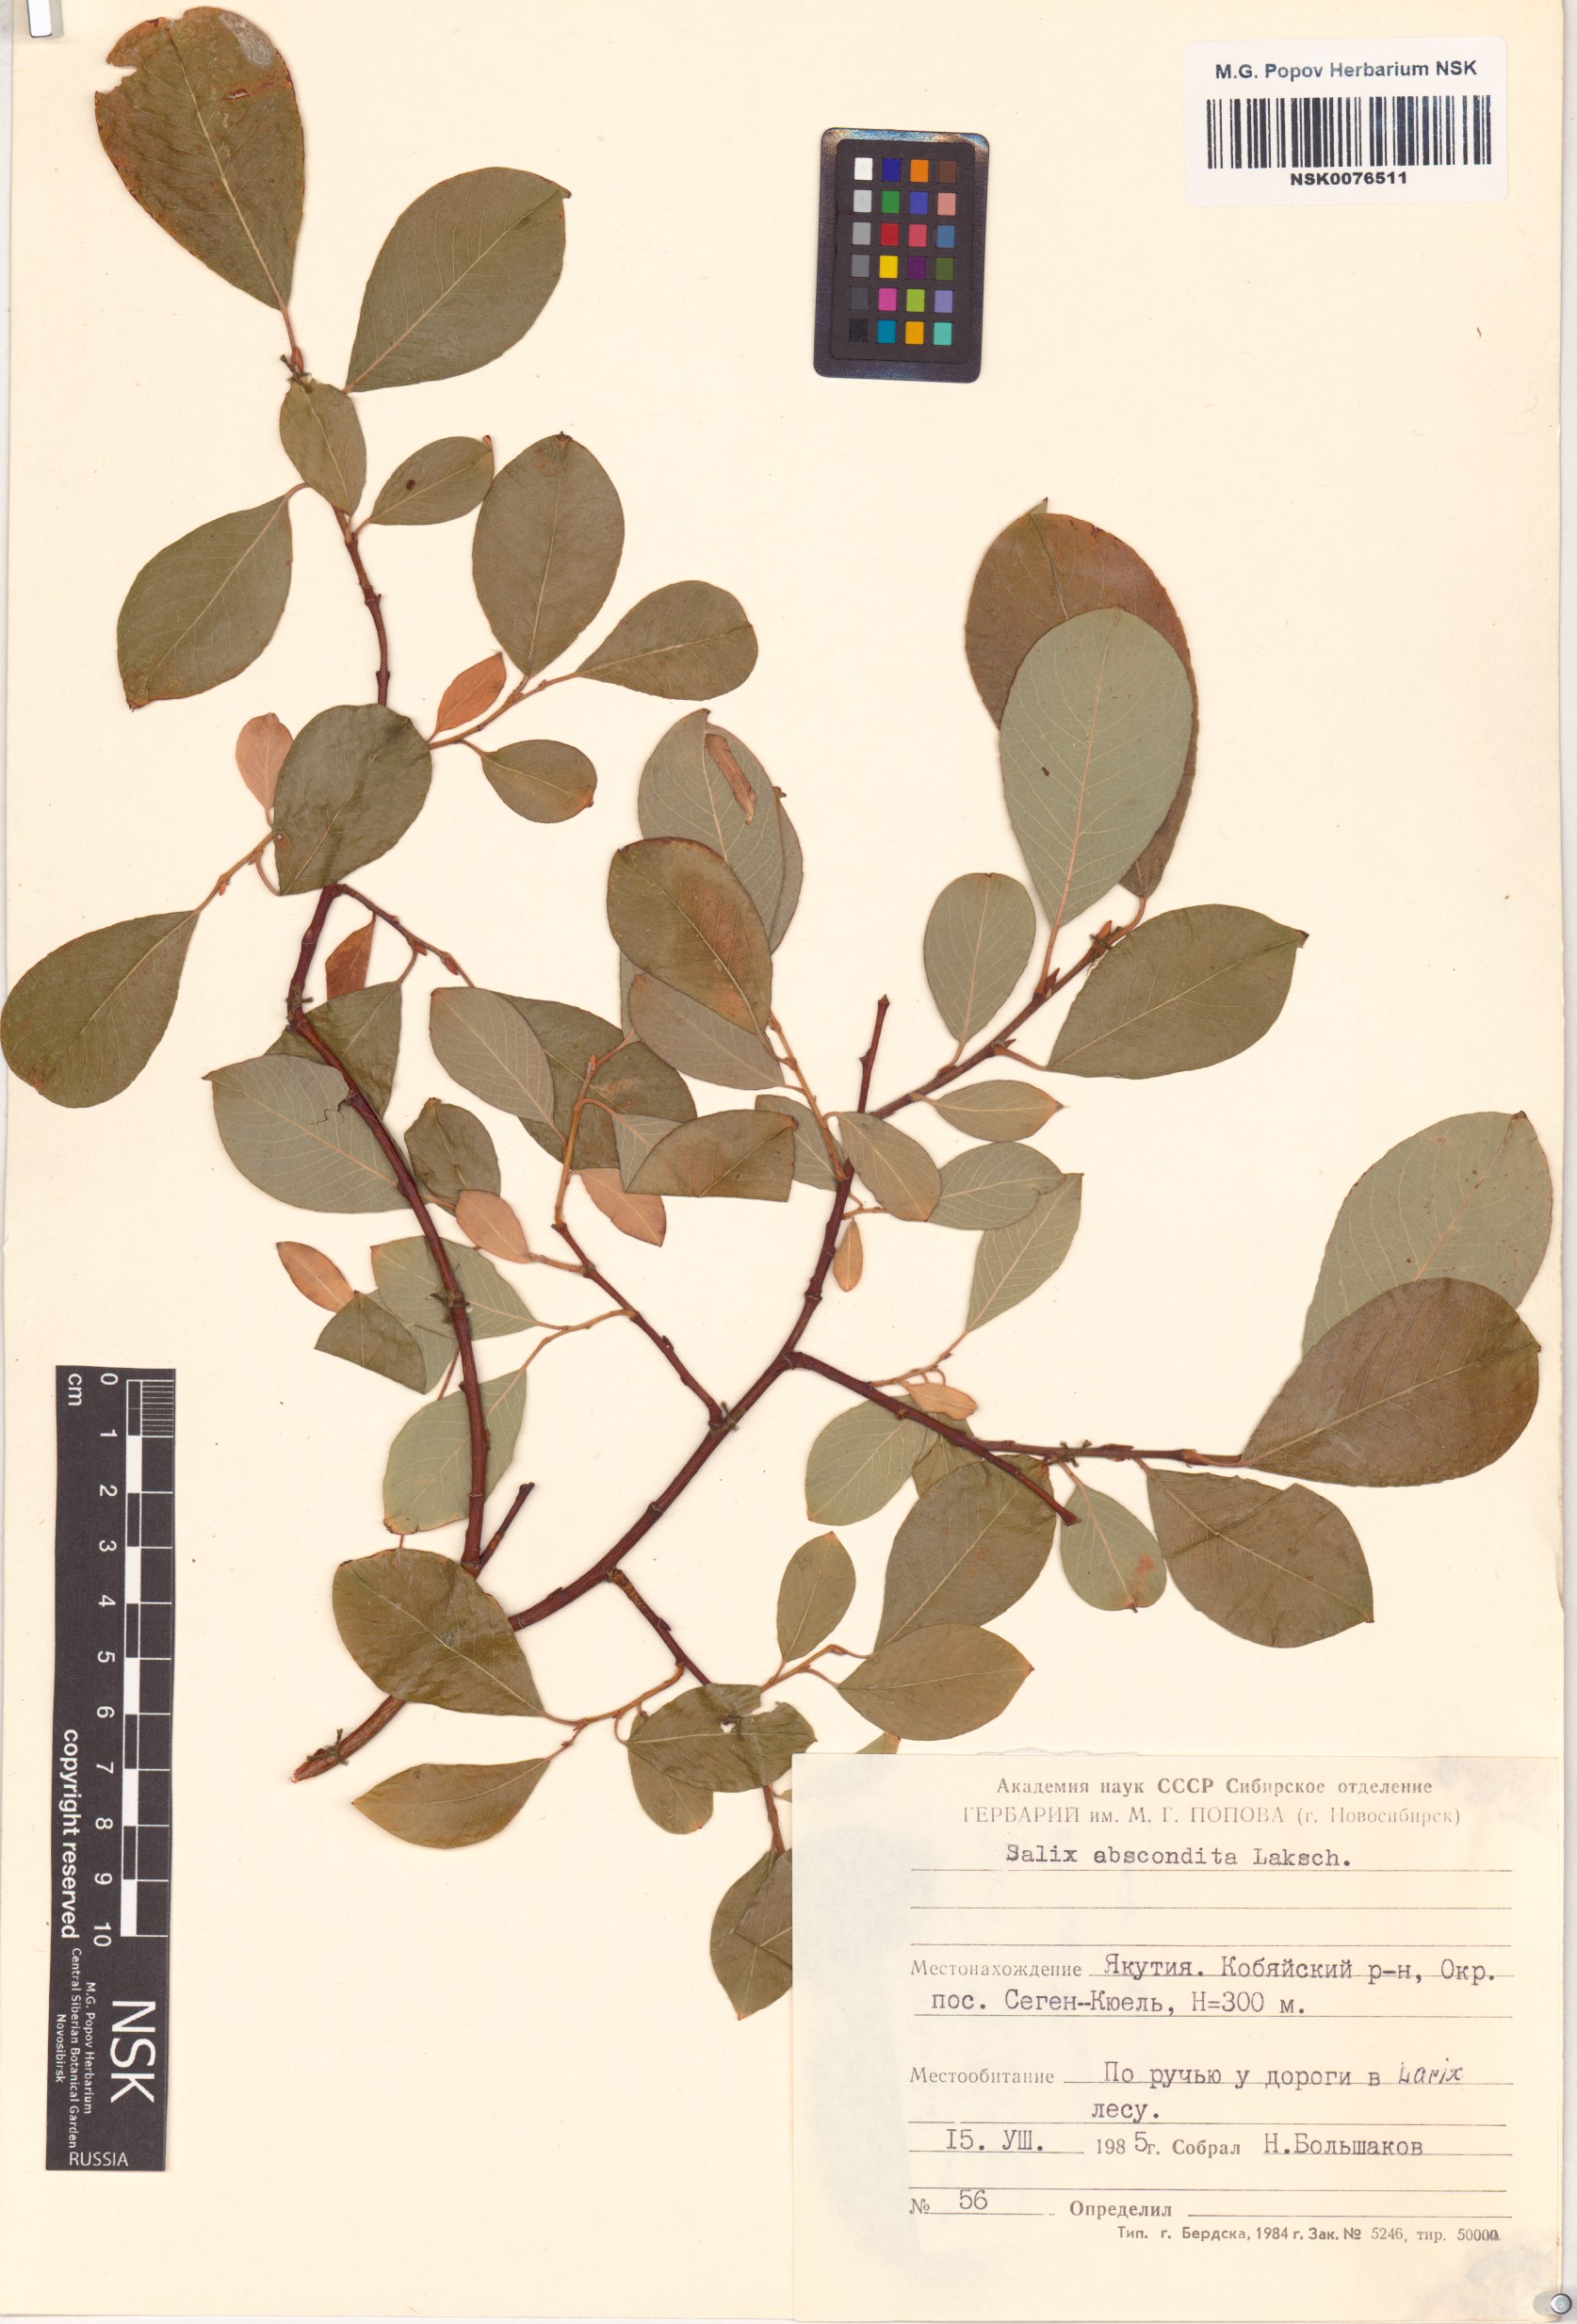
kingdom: Plantae
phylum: Tracheophyta
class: Magnoliopsida
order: Malpighiales
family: Salicaceae
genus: Salix
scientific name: Salix abscondita
